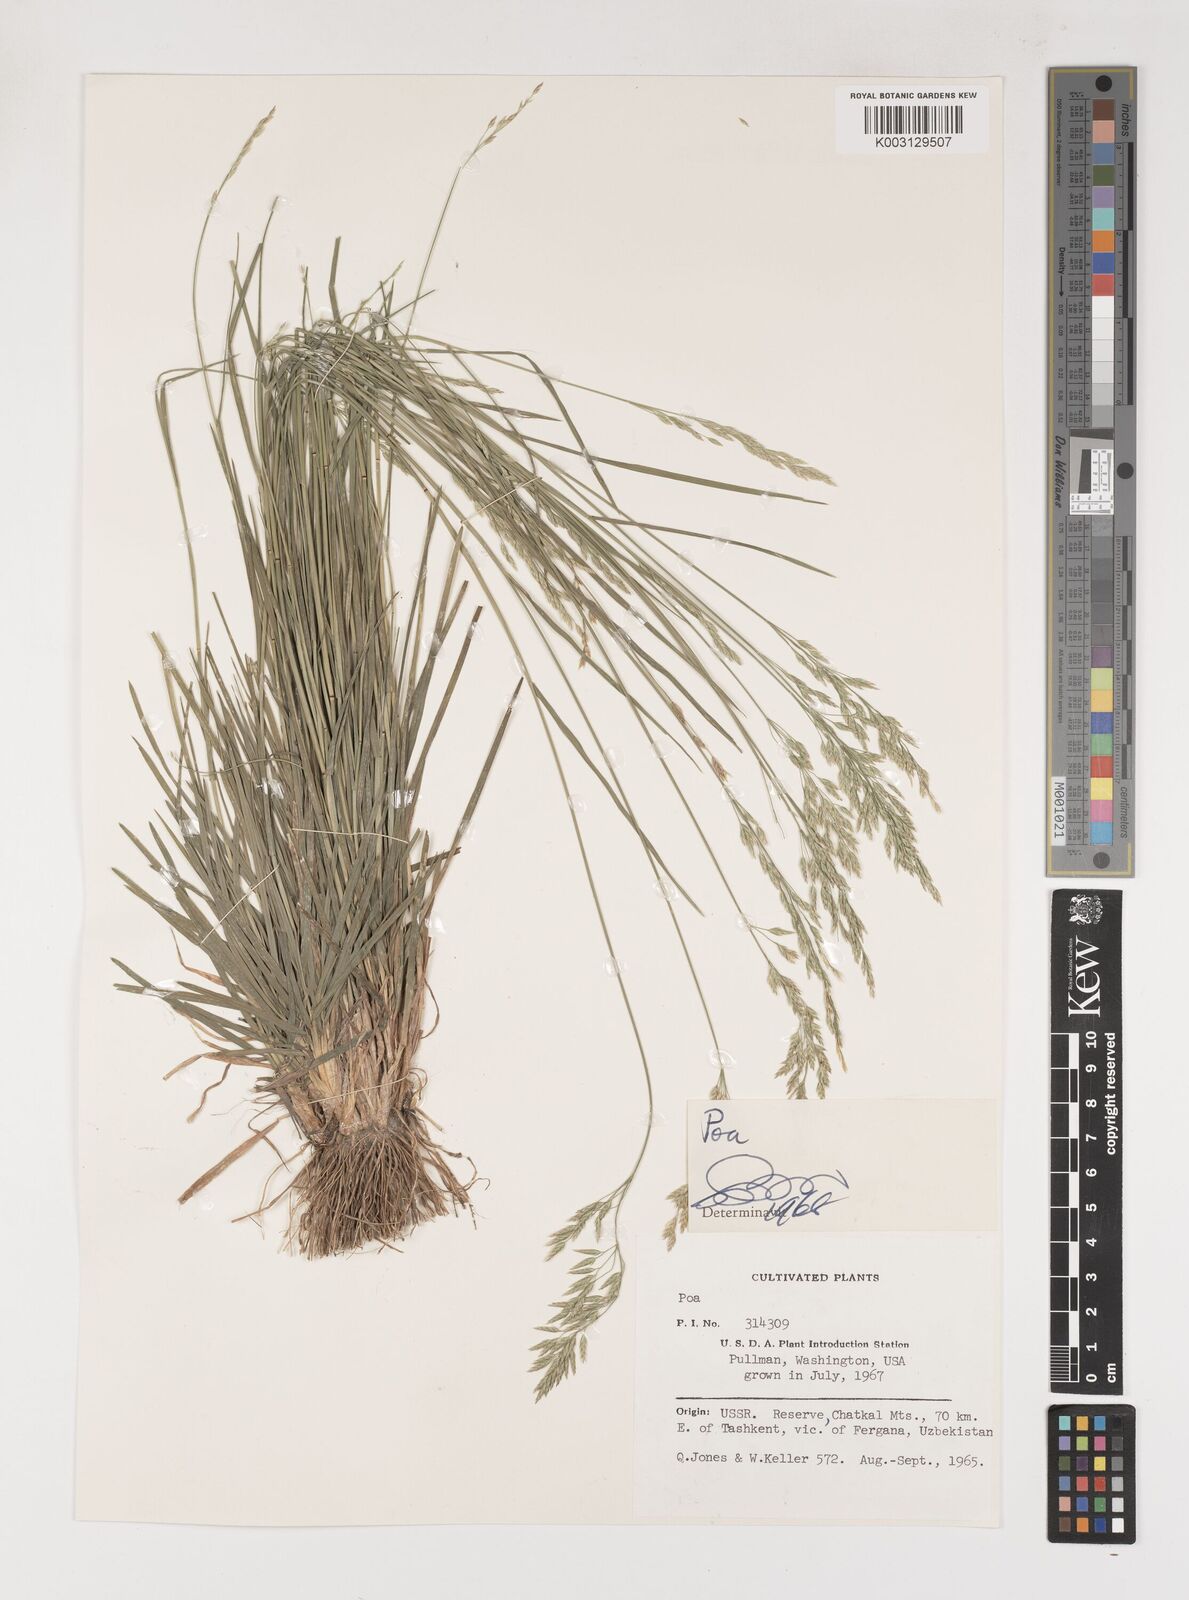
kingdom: Plantae
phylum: Tracheophyta
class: Liliopsida
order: Poales
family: Poaceae
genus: Poa
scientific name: Poa
